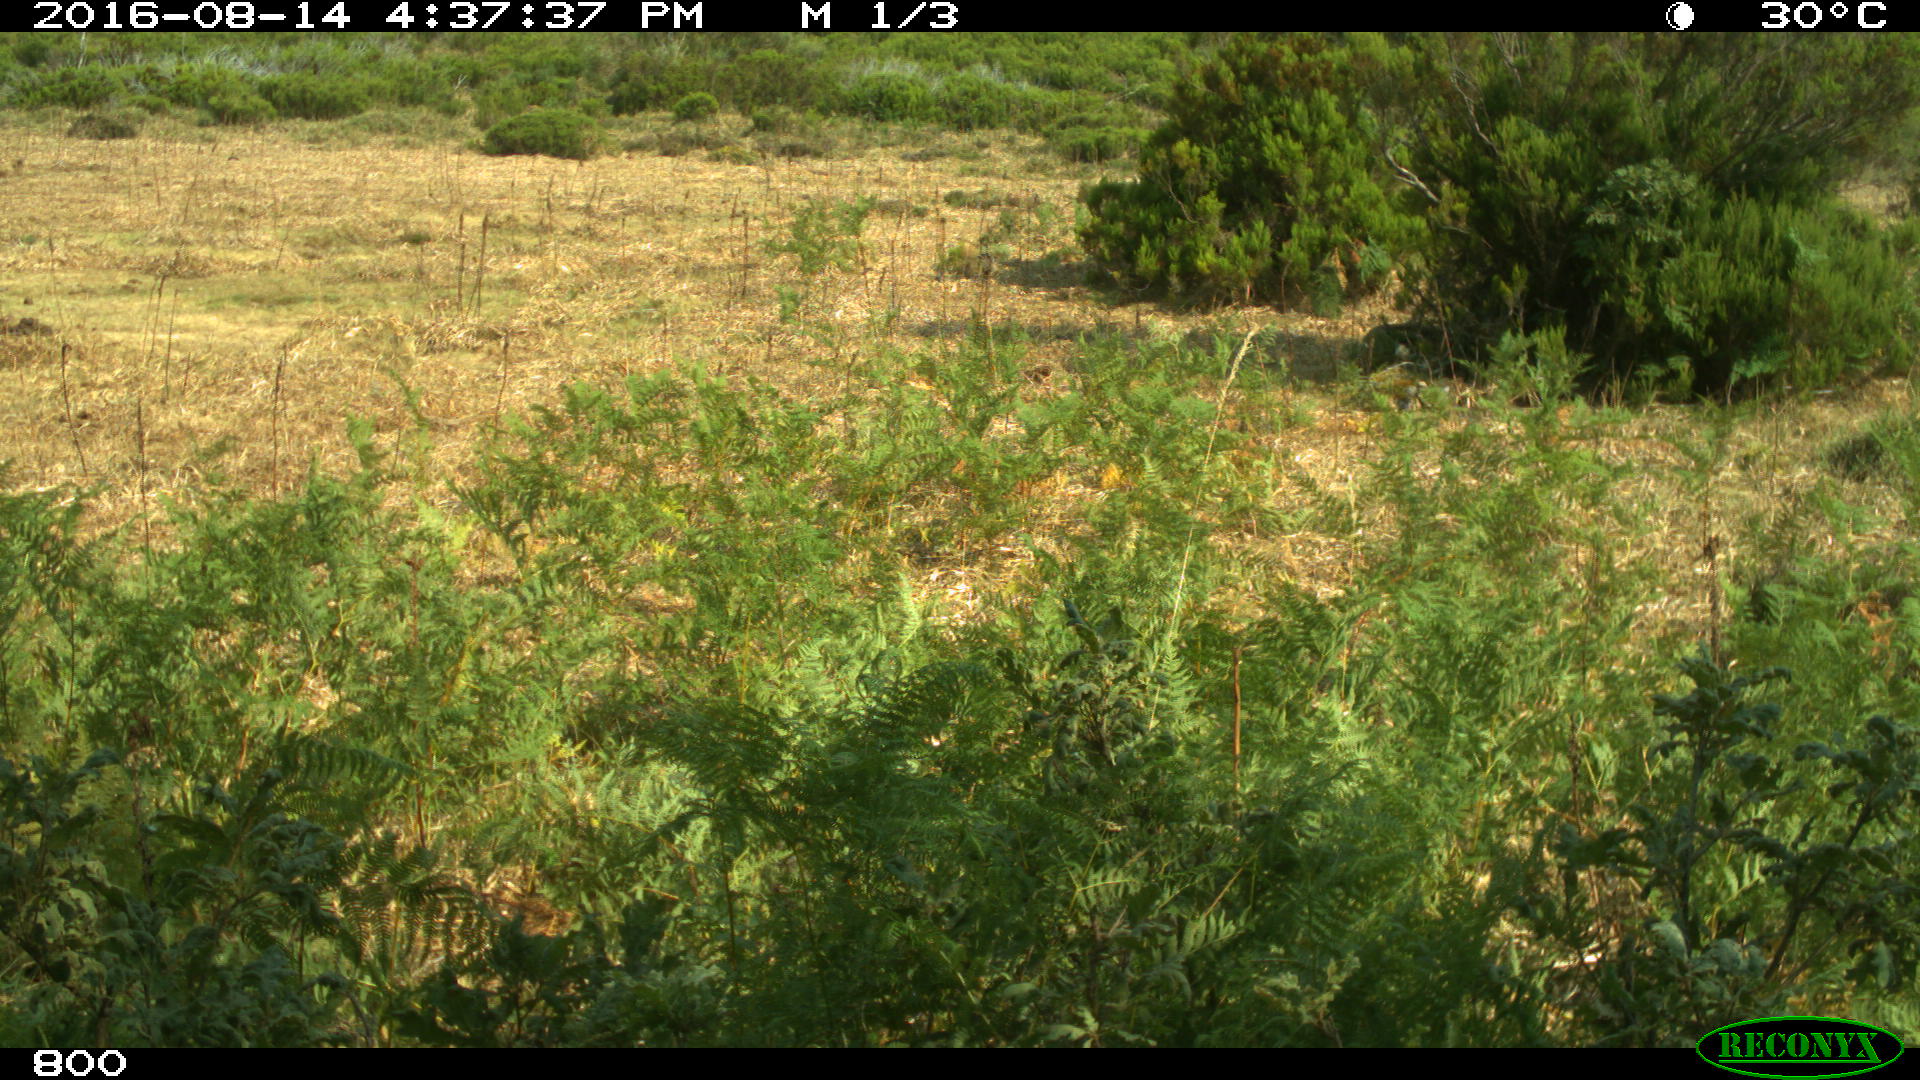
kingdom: Animalia
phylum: Chordata
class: Mammalia
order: Artiodactyla
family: Suidae
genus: Sus
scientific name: Sus scrofa
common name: Wild boar
